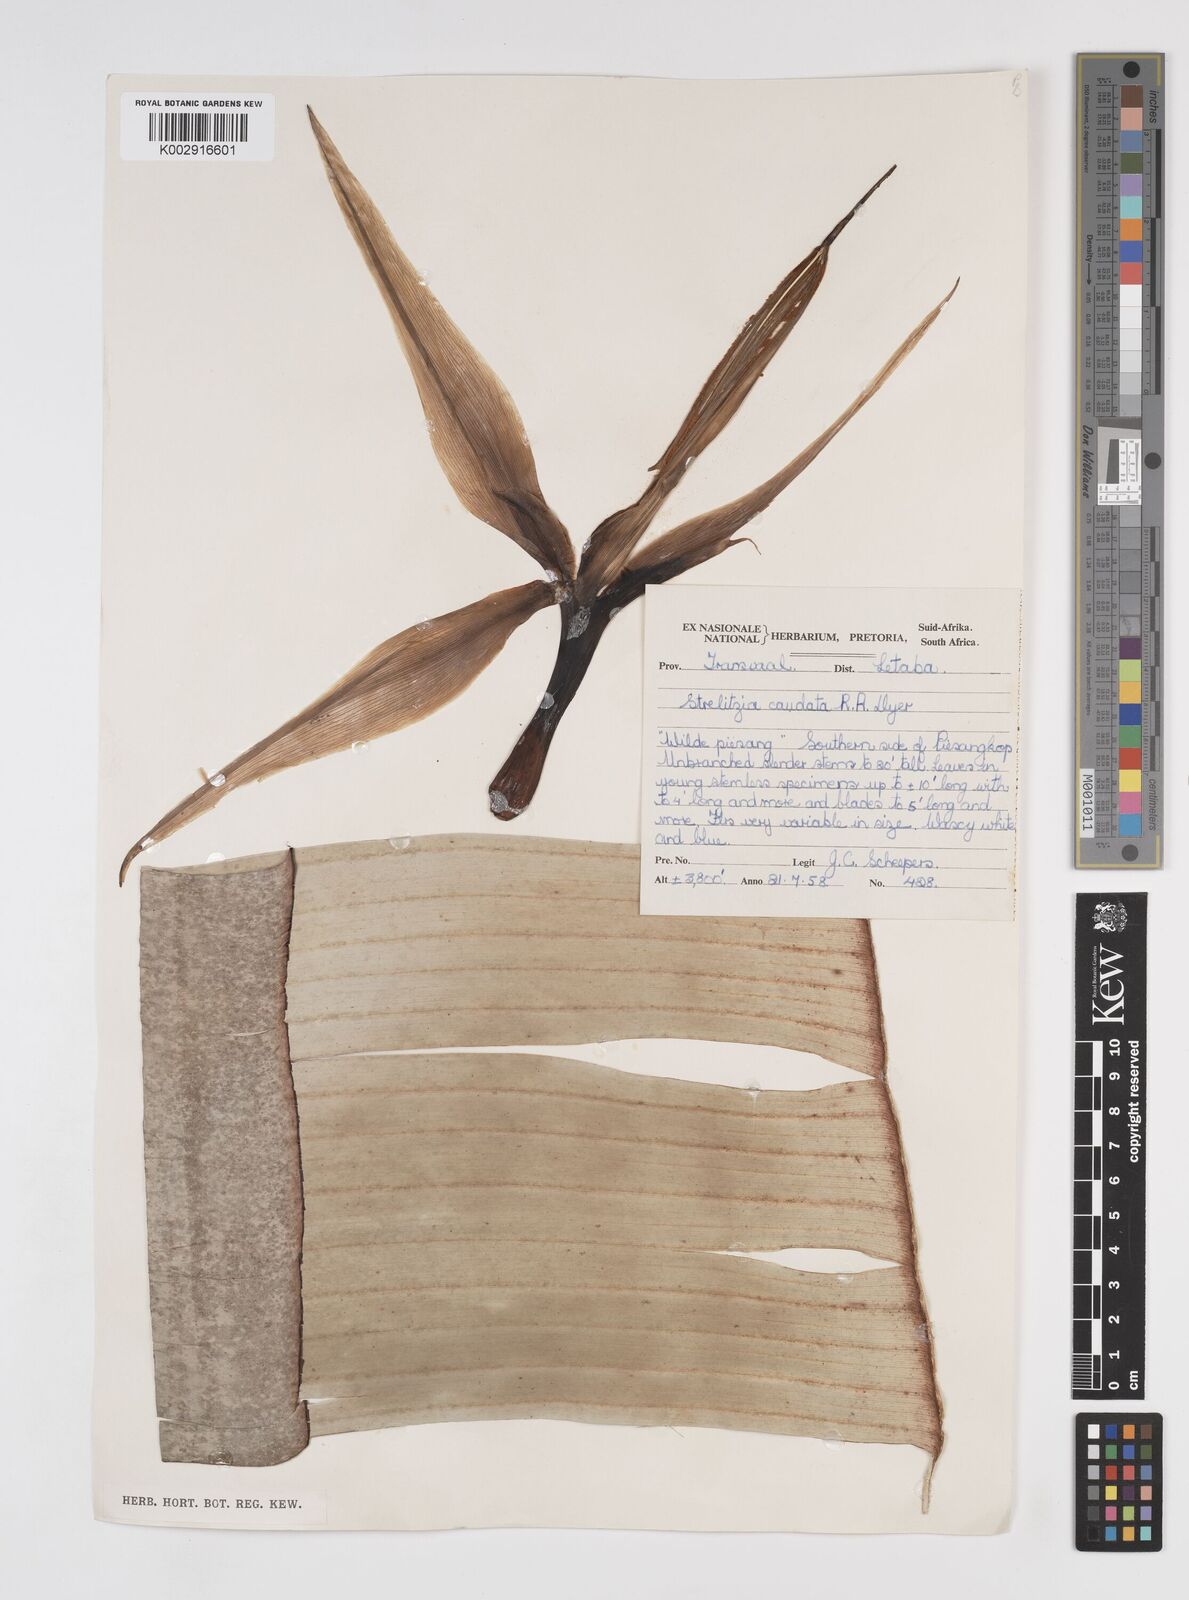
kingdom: Plantae
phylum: Tracheophyta
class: Liliopsida
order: Zingiberales
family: Strelitziaceae
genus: Strelitzia
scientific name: Strelitzia caudata
